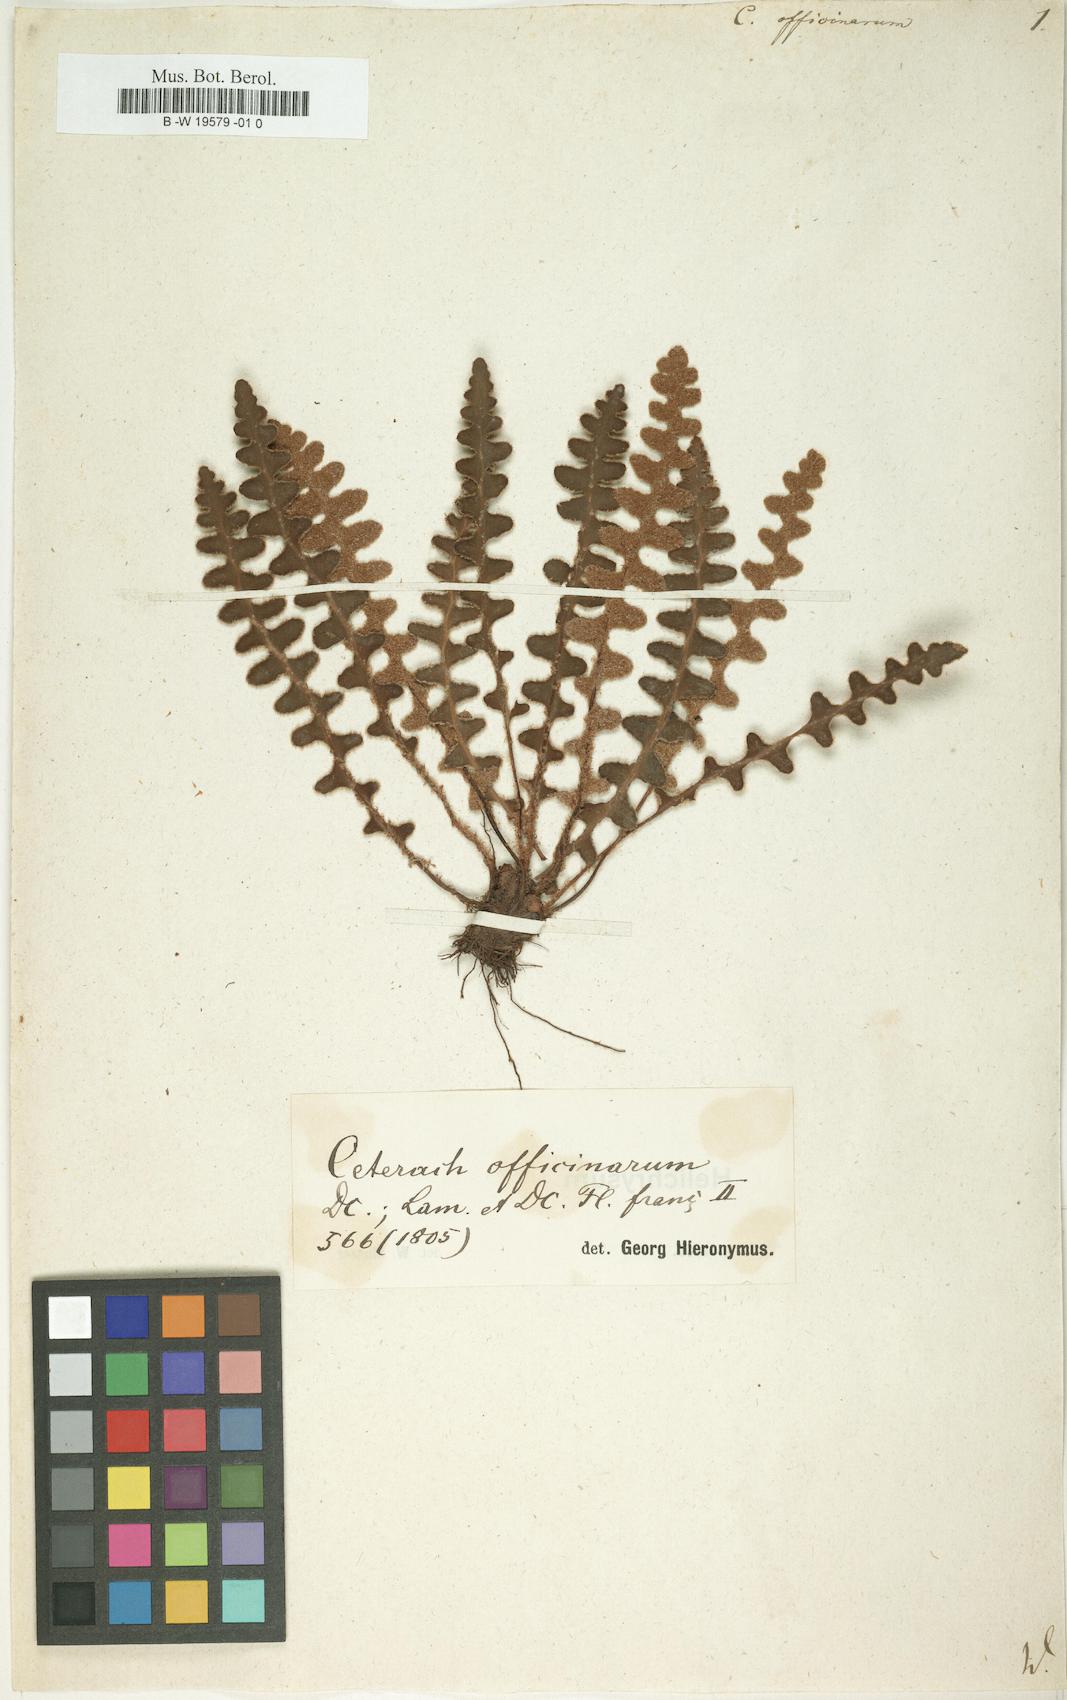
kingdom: Plantae
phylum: Tracheophyta
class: Polypodiopsida
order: Polypodiales
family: Aspleniaceae
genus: Asplenium
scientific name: Asplenium ceterach
